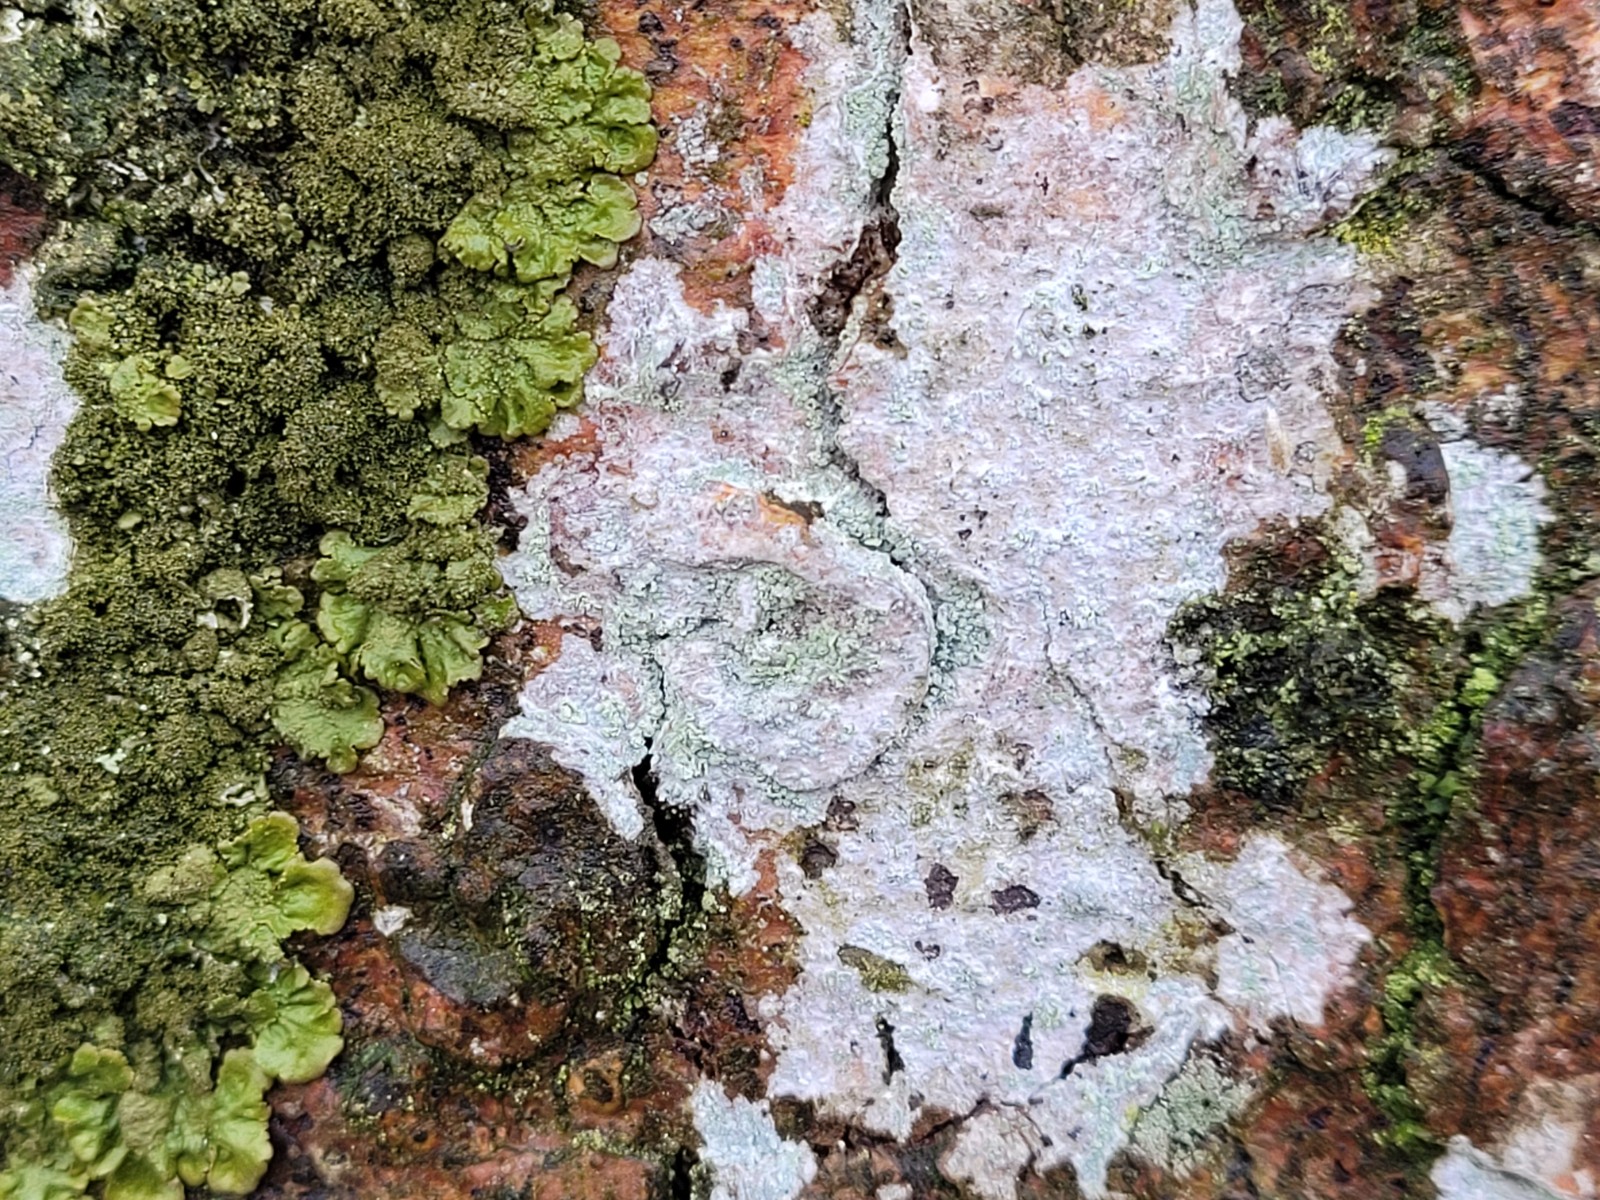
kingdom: Fungi
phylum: Ascomycota
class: Lecanoromycetes
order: Ostropales
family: Phlyctidaceae
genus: Phlyctis
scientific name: Phlyctis argena
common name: almindelig sølvlav
